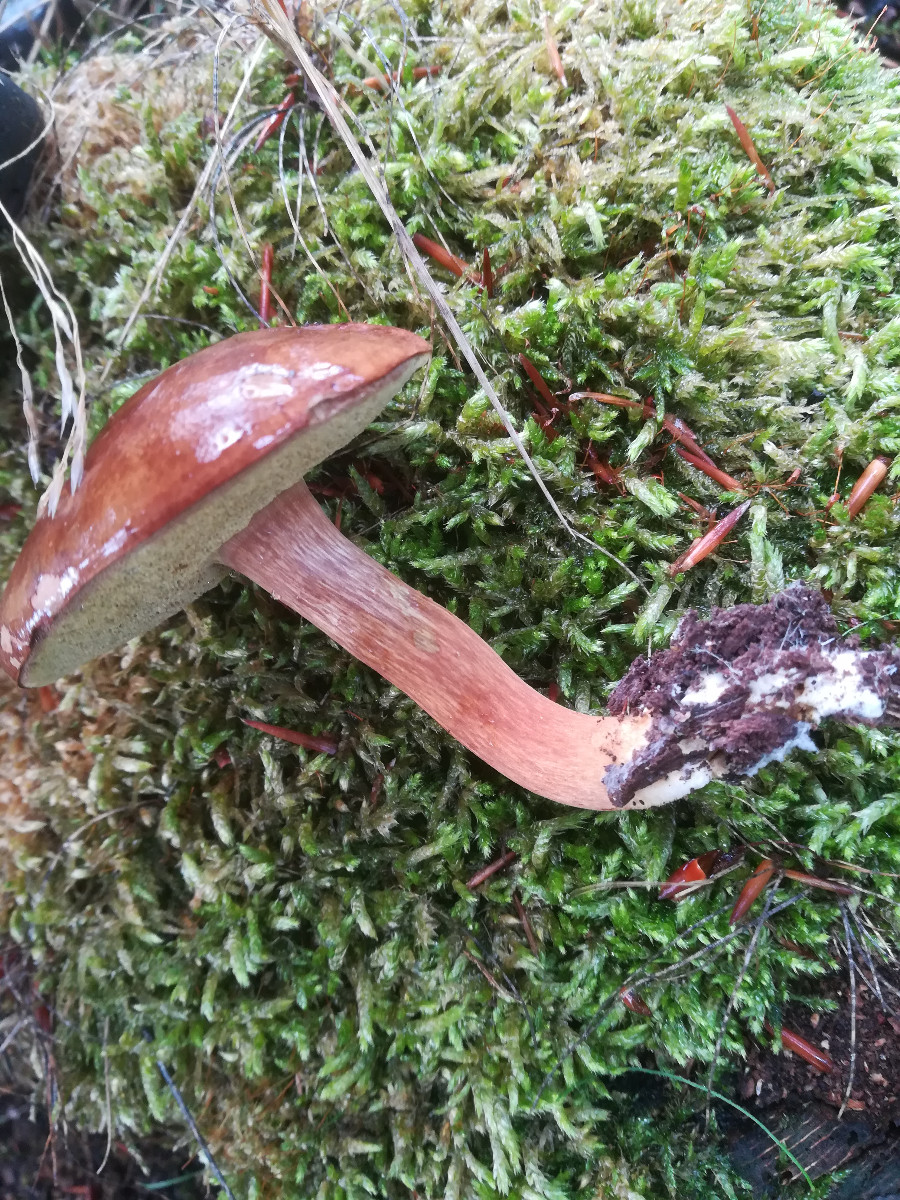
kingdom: Fungi
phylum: Basidiomycota
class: Agaricomycetes
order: Boletales
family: Boletaceae
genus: Imleria
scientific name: Imleria badia
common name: brunstokket rørhat
